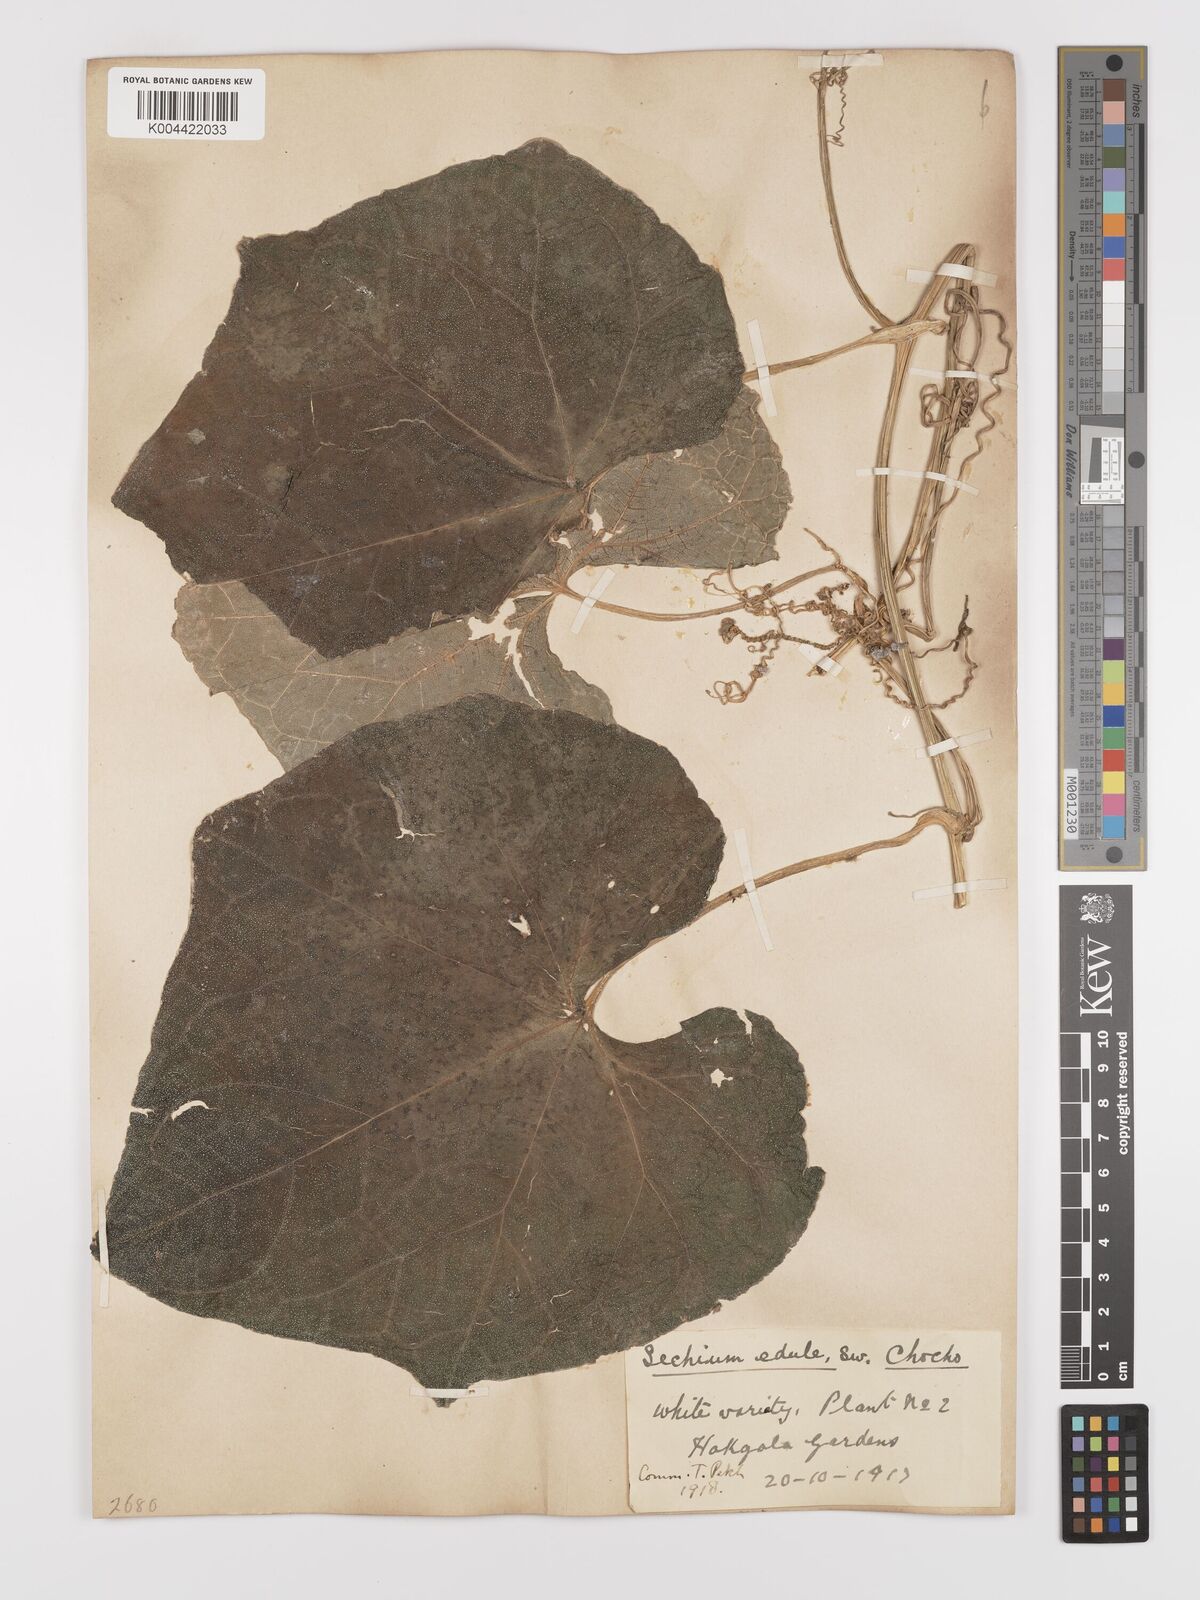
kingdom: Plantae
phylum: Tracheophyta
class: Magnoliopsida
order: Cucurbitales
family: Cucurbitaceae
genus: Sechium
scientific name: Sechium edule
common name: Chayote
